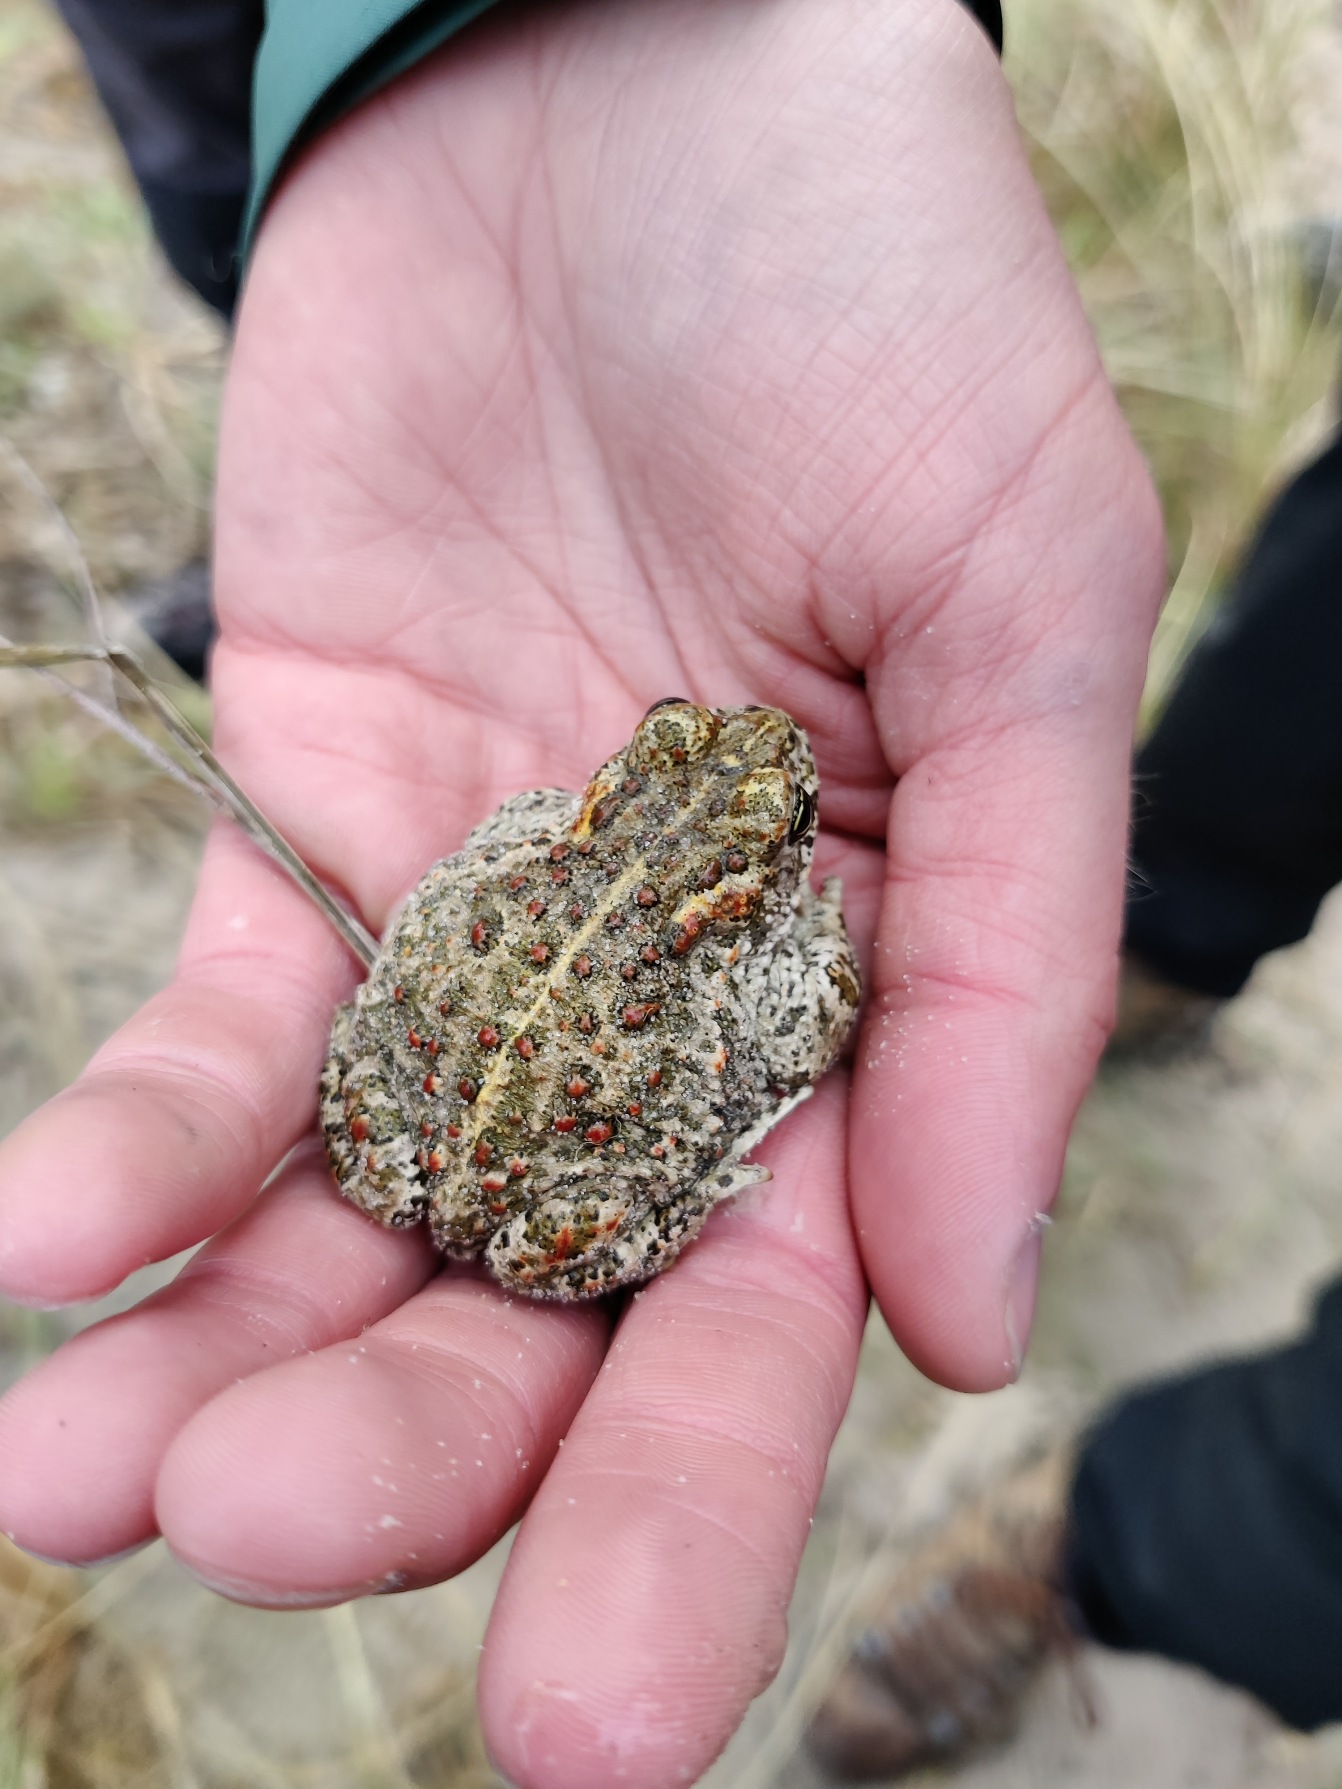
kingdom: Animalia
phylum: Chordata
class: Amphibia
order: Anura
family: Bufonidae
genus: Epidalea
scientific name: Epidalea calamita
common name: Strandtudse
